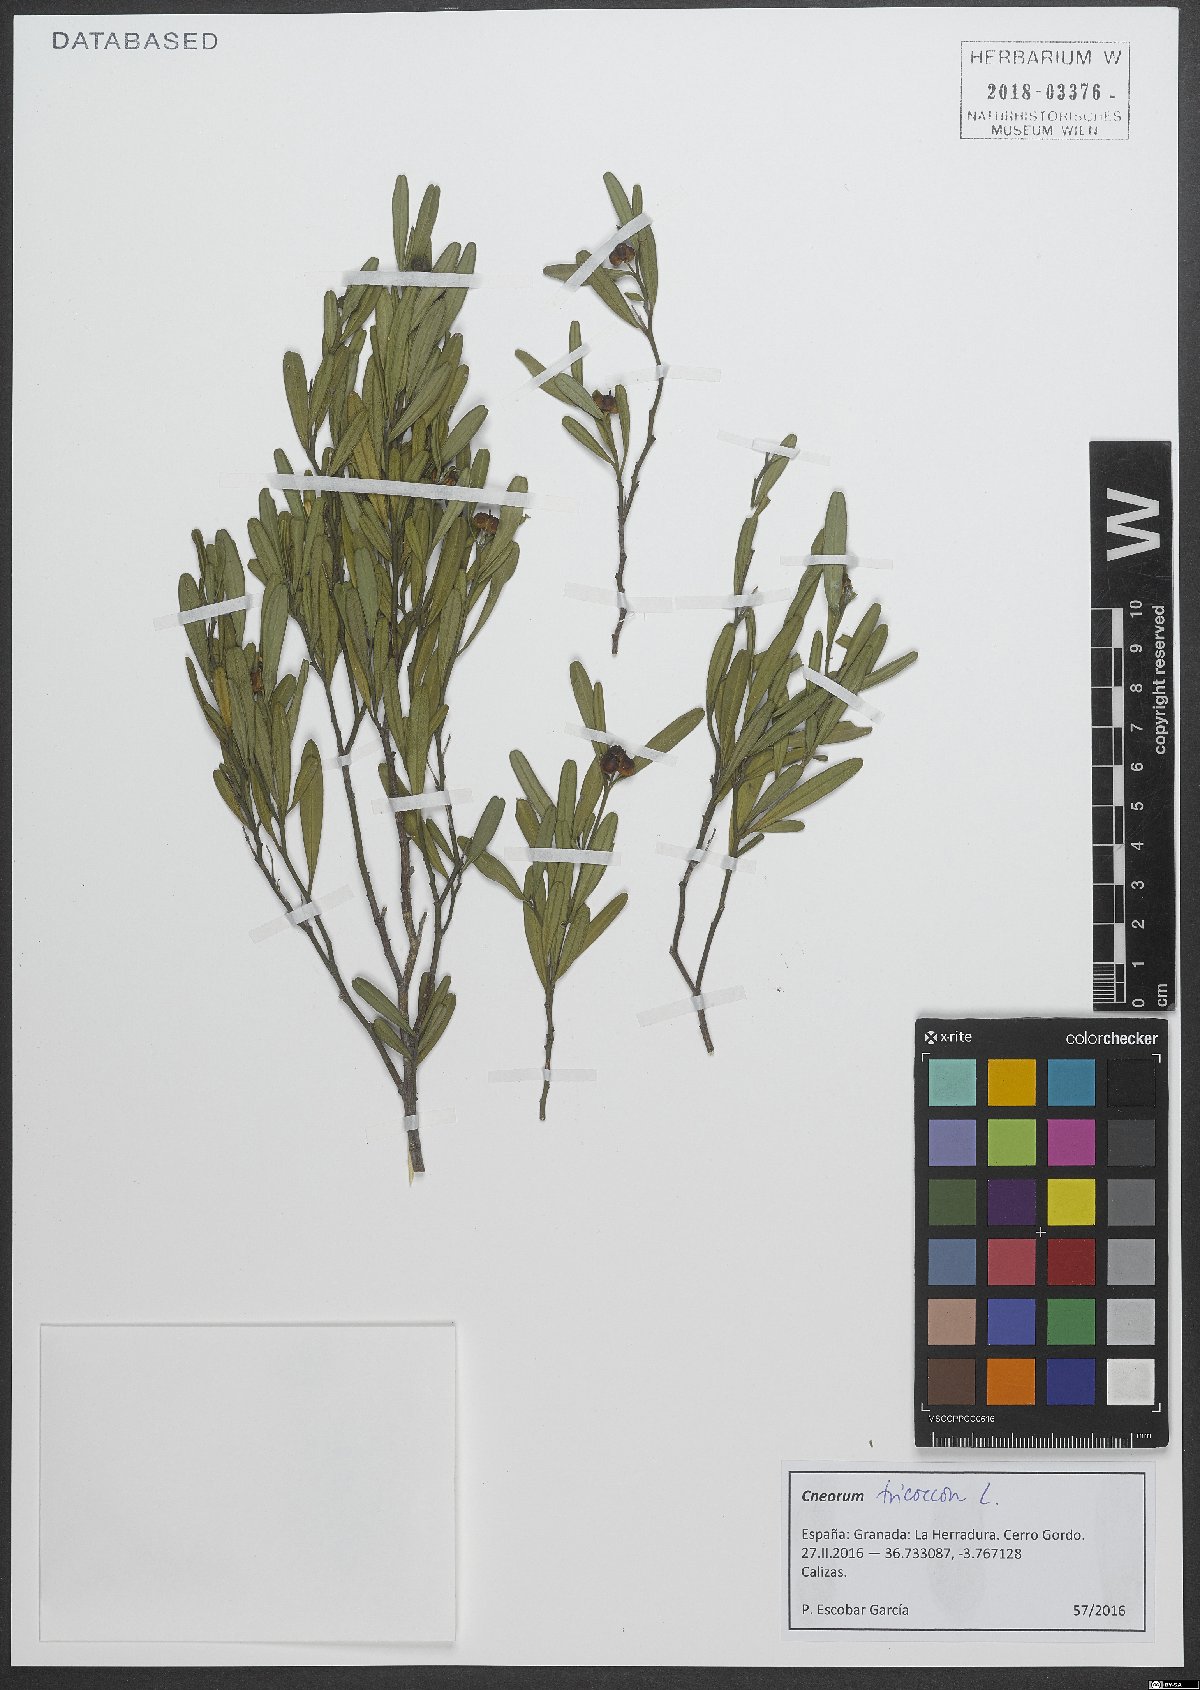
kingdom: Plantae
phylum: Tracheophyta
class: Magnoliopsida
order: Sapindales
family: Rutaceae
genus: Cneorum
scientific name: Cneorum tricoccon
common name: Spurge olive
